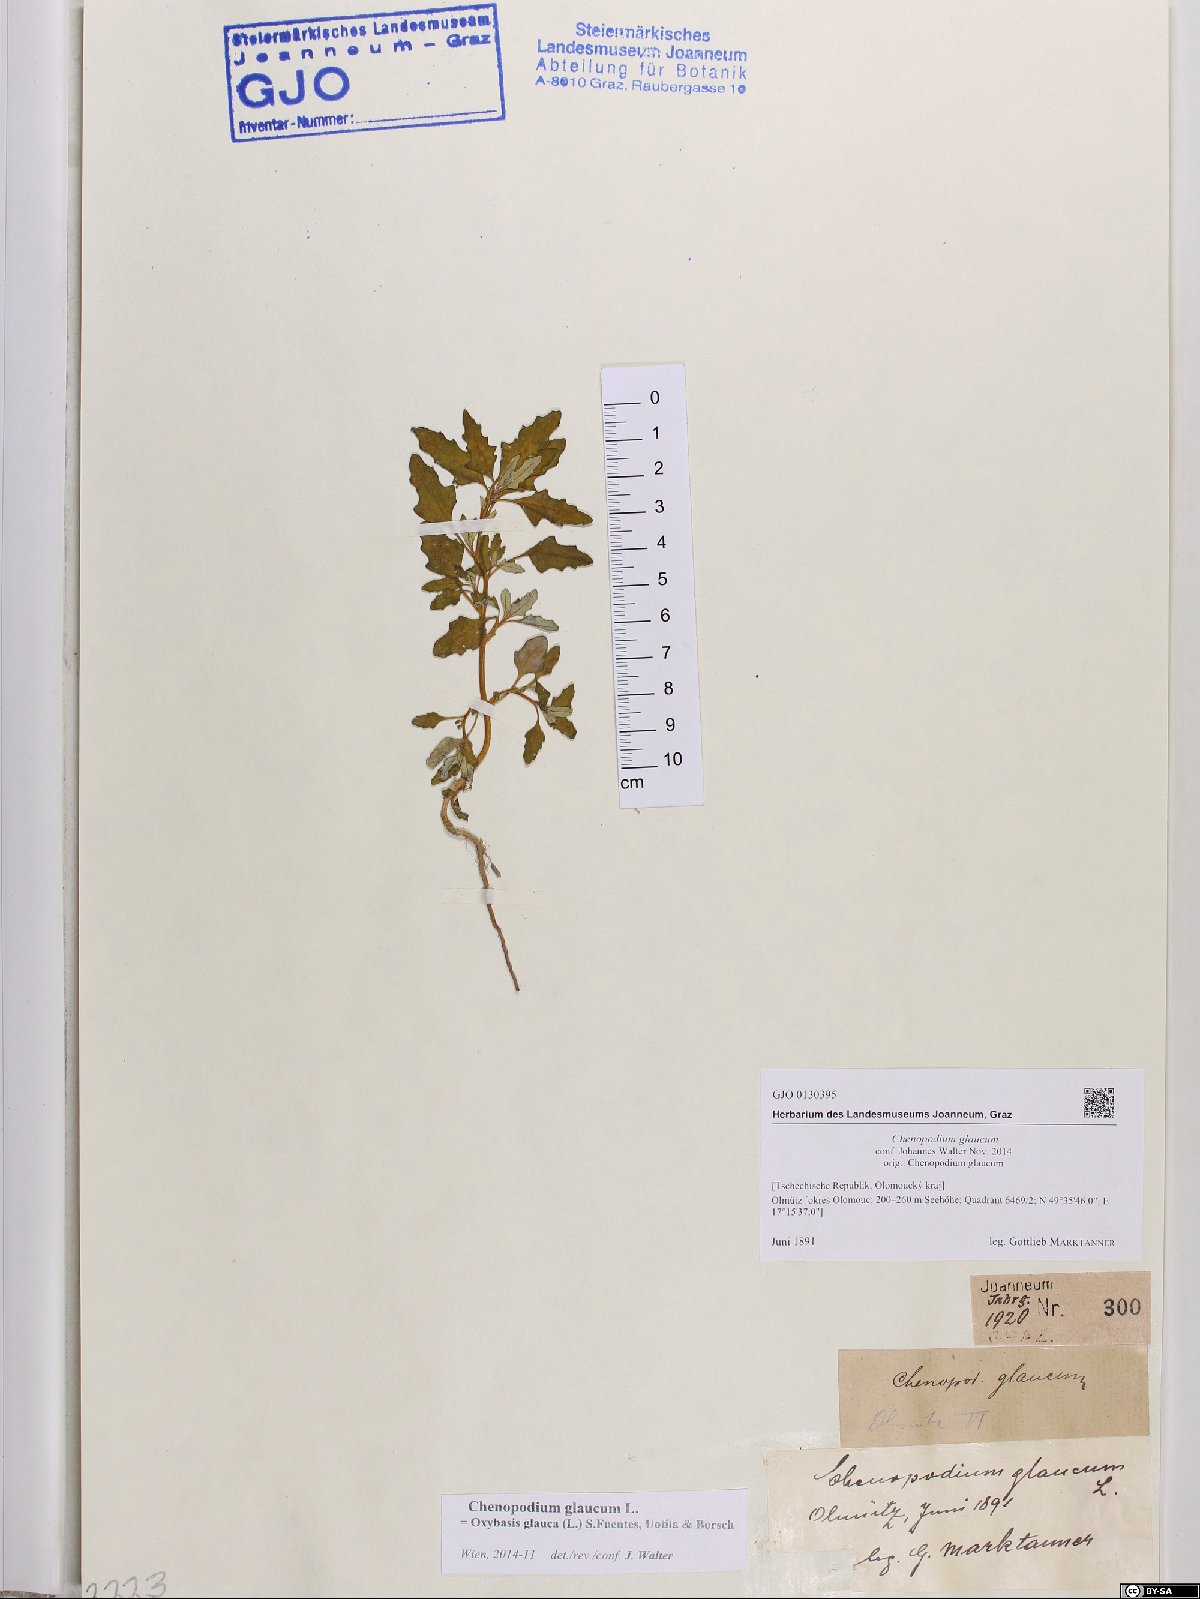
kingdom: Plantae
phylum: Tracheophyta
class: Magnoliopsida
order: Caryophyllales
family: Amaranthaceae
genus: Oxybasis
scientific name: Oxybasis glauca
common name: Glaucous goosefoot
